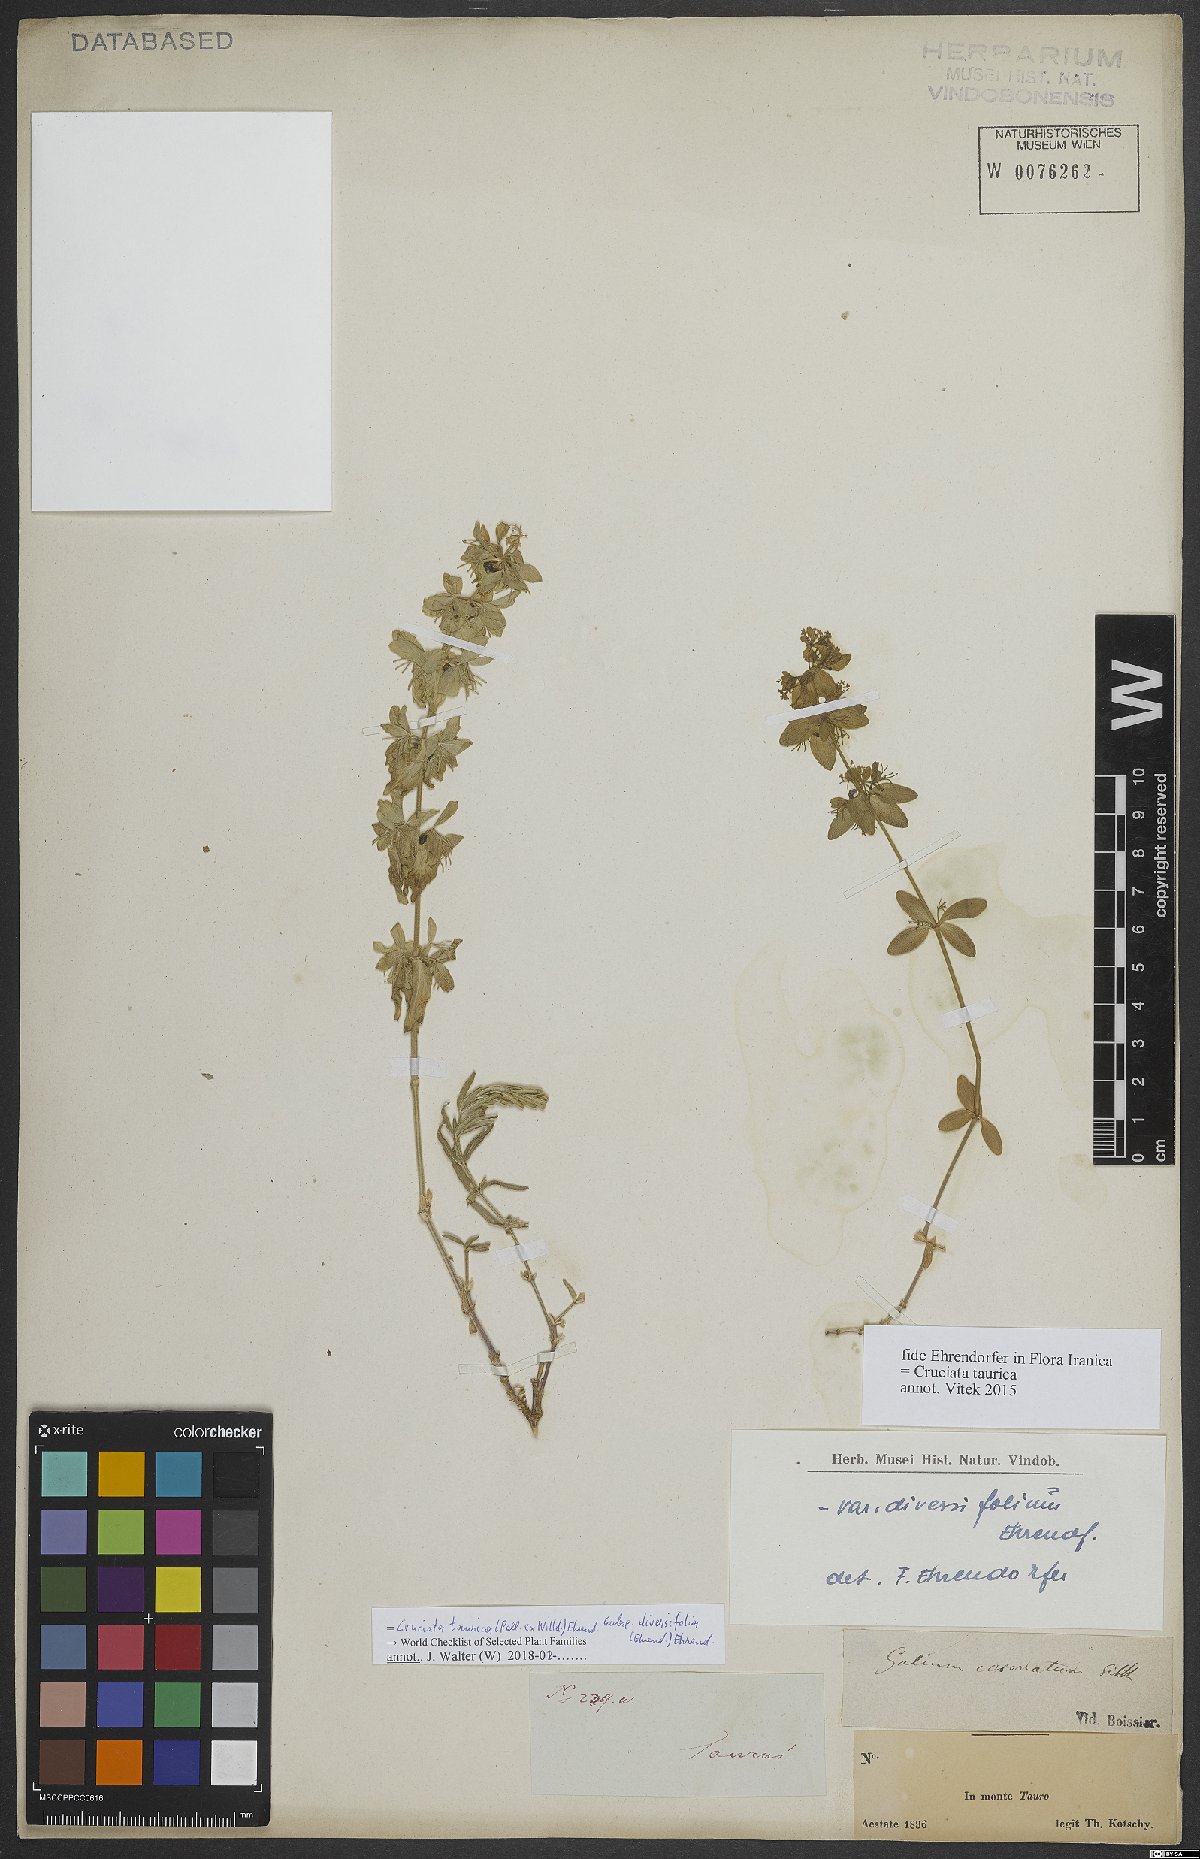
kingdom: Plantae
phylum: Tracheophyta
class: Magnoliopsida
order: Gentianales
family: Rubiaceae
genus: Cruciata
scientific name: Cruciata taurica
